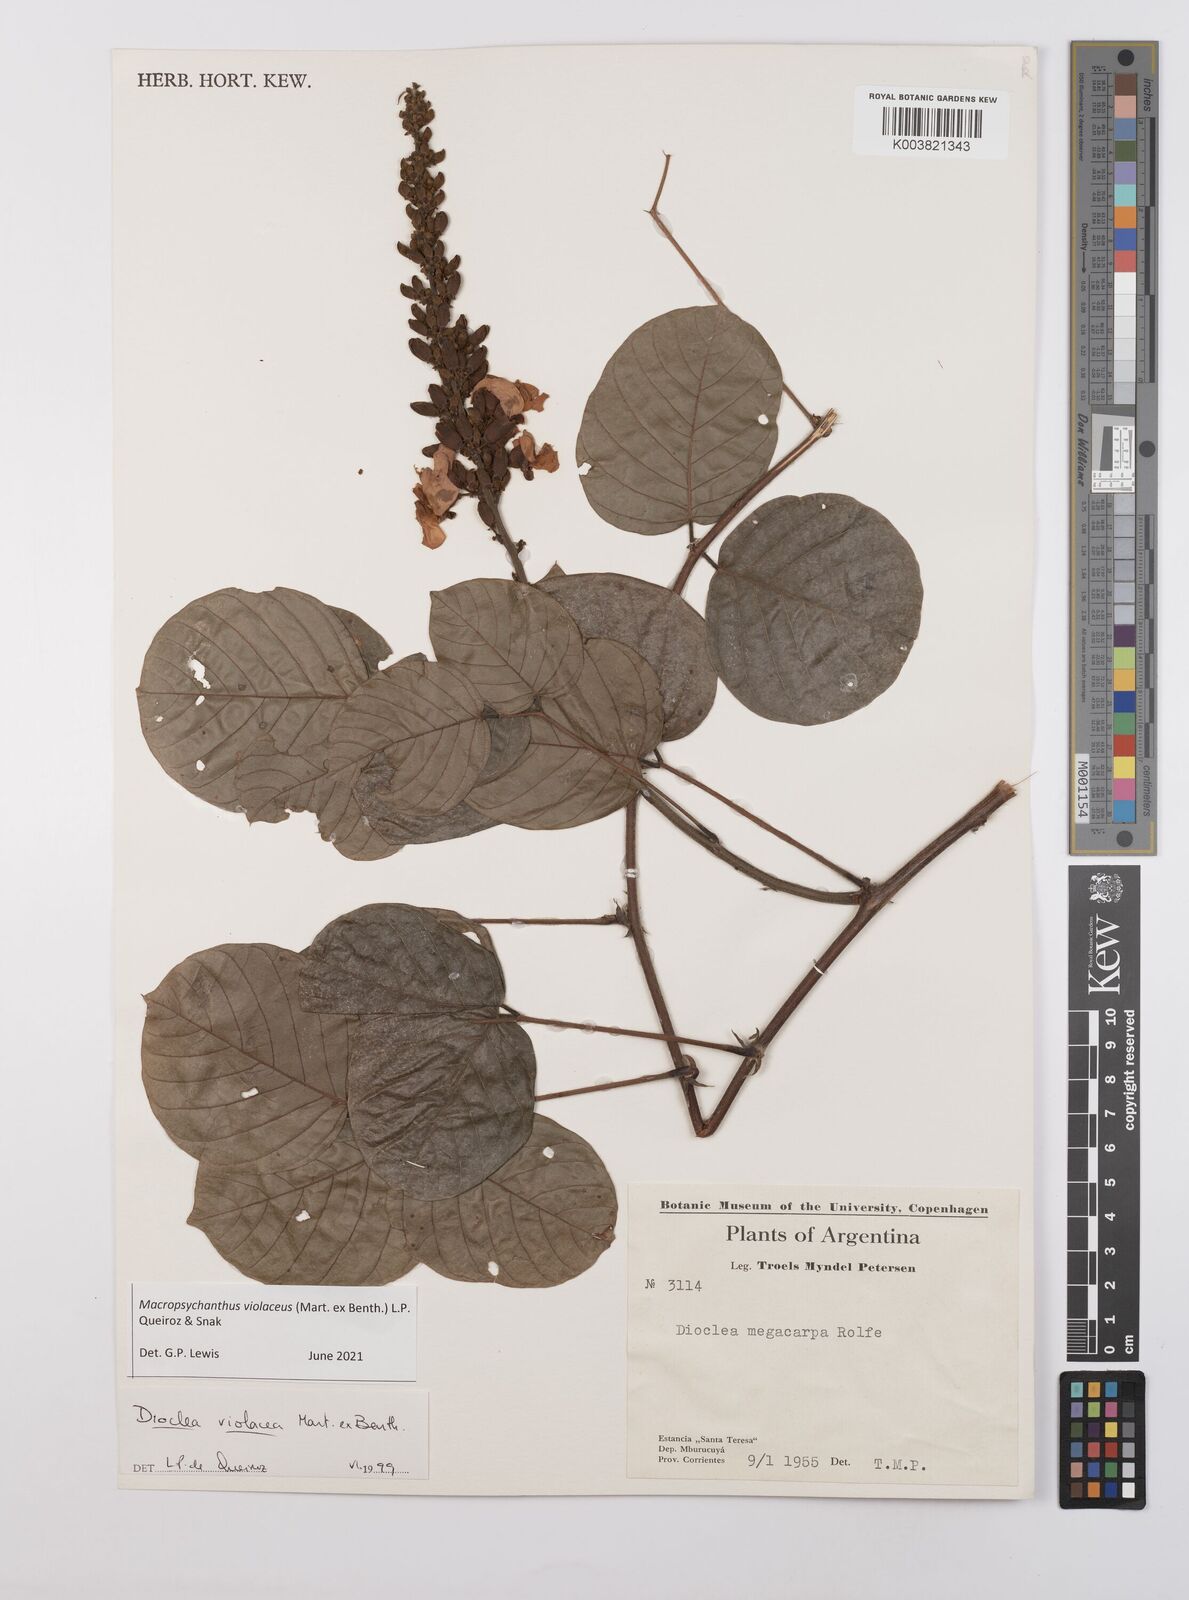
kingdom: Plantae
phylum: Tracheophyta
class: Magnoliopsida
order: Fabales
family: Fabaceae
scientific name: Fabaceae
